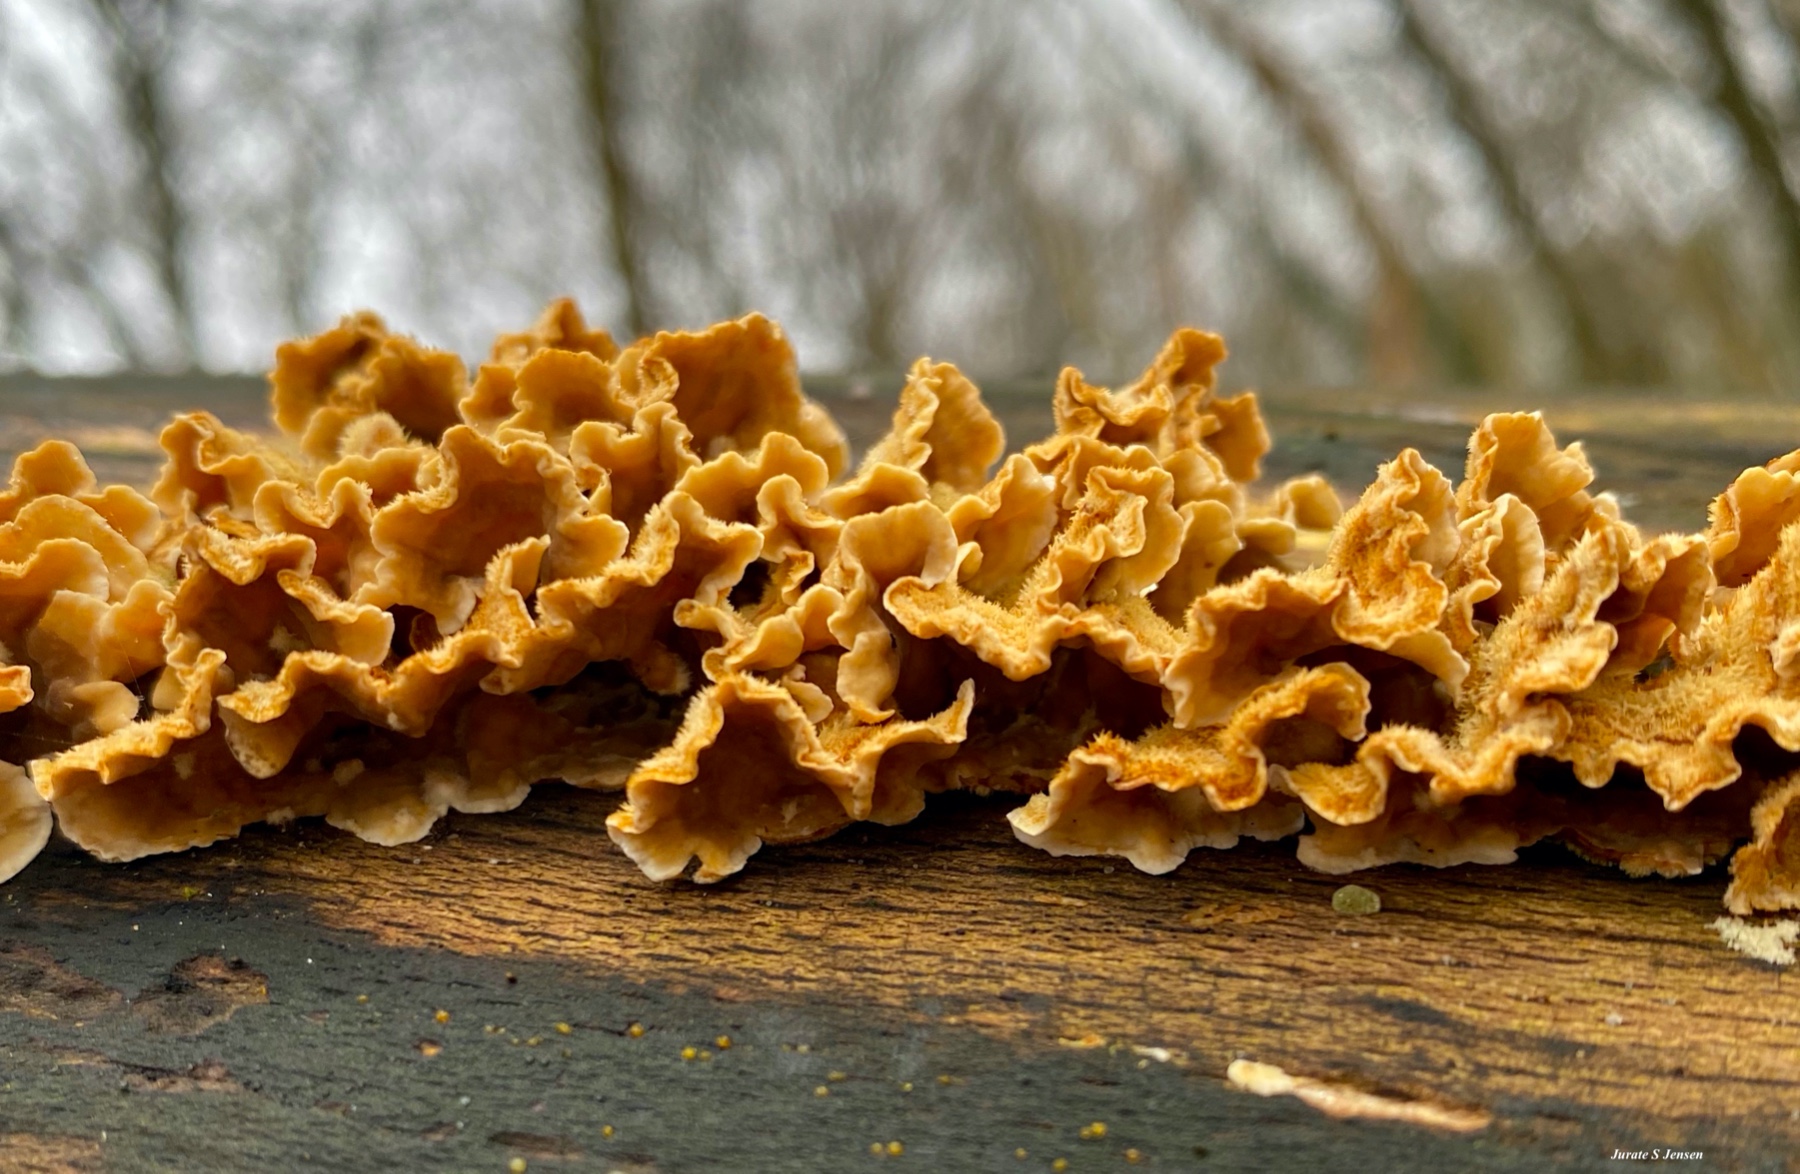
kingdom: Fungi
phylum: Basidiomycota
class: Agaricomycetes
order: Russulales
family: Stereaceae
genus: Stereum
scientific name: Stereum hirsutum
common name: håret lædersvamp
